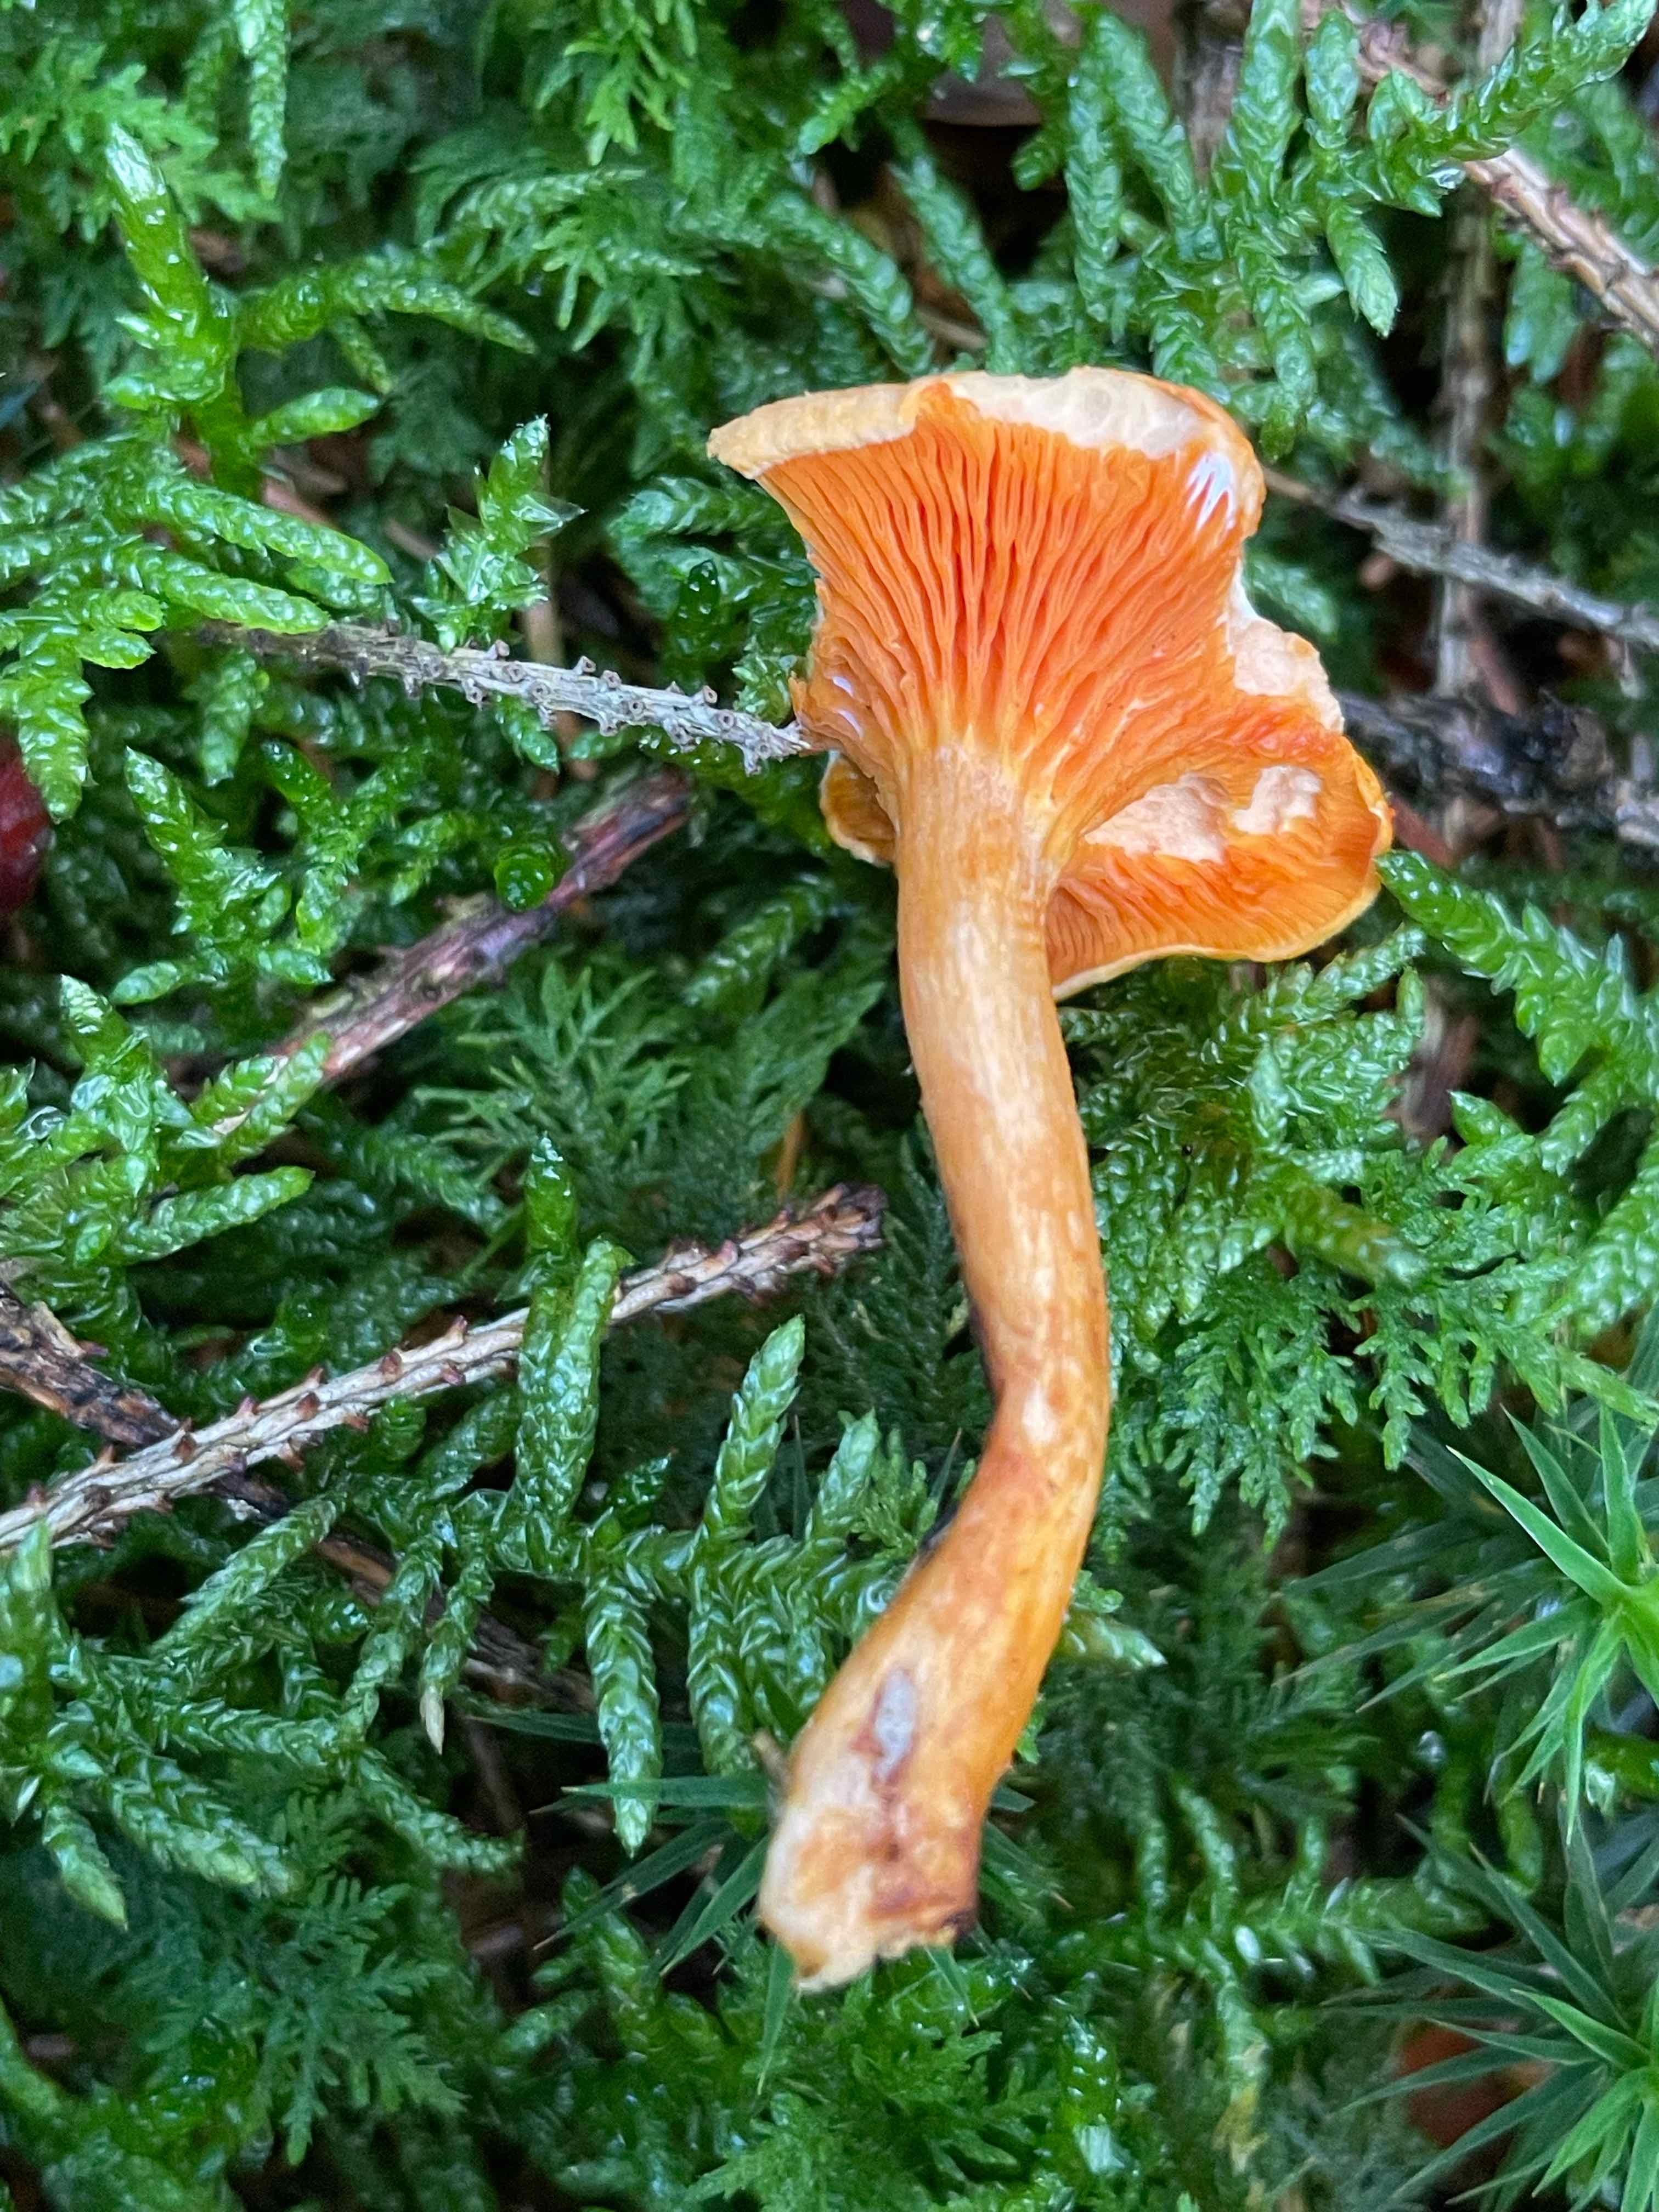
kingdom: Fungi
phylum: Basidiomycota
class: Agaricomycetes
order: Boletales
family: Hygrophoropsidaceae
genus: Hygrophoropsis
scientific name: Hygrophoropsis aurantiaca
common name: almindelig orangekantarel
